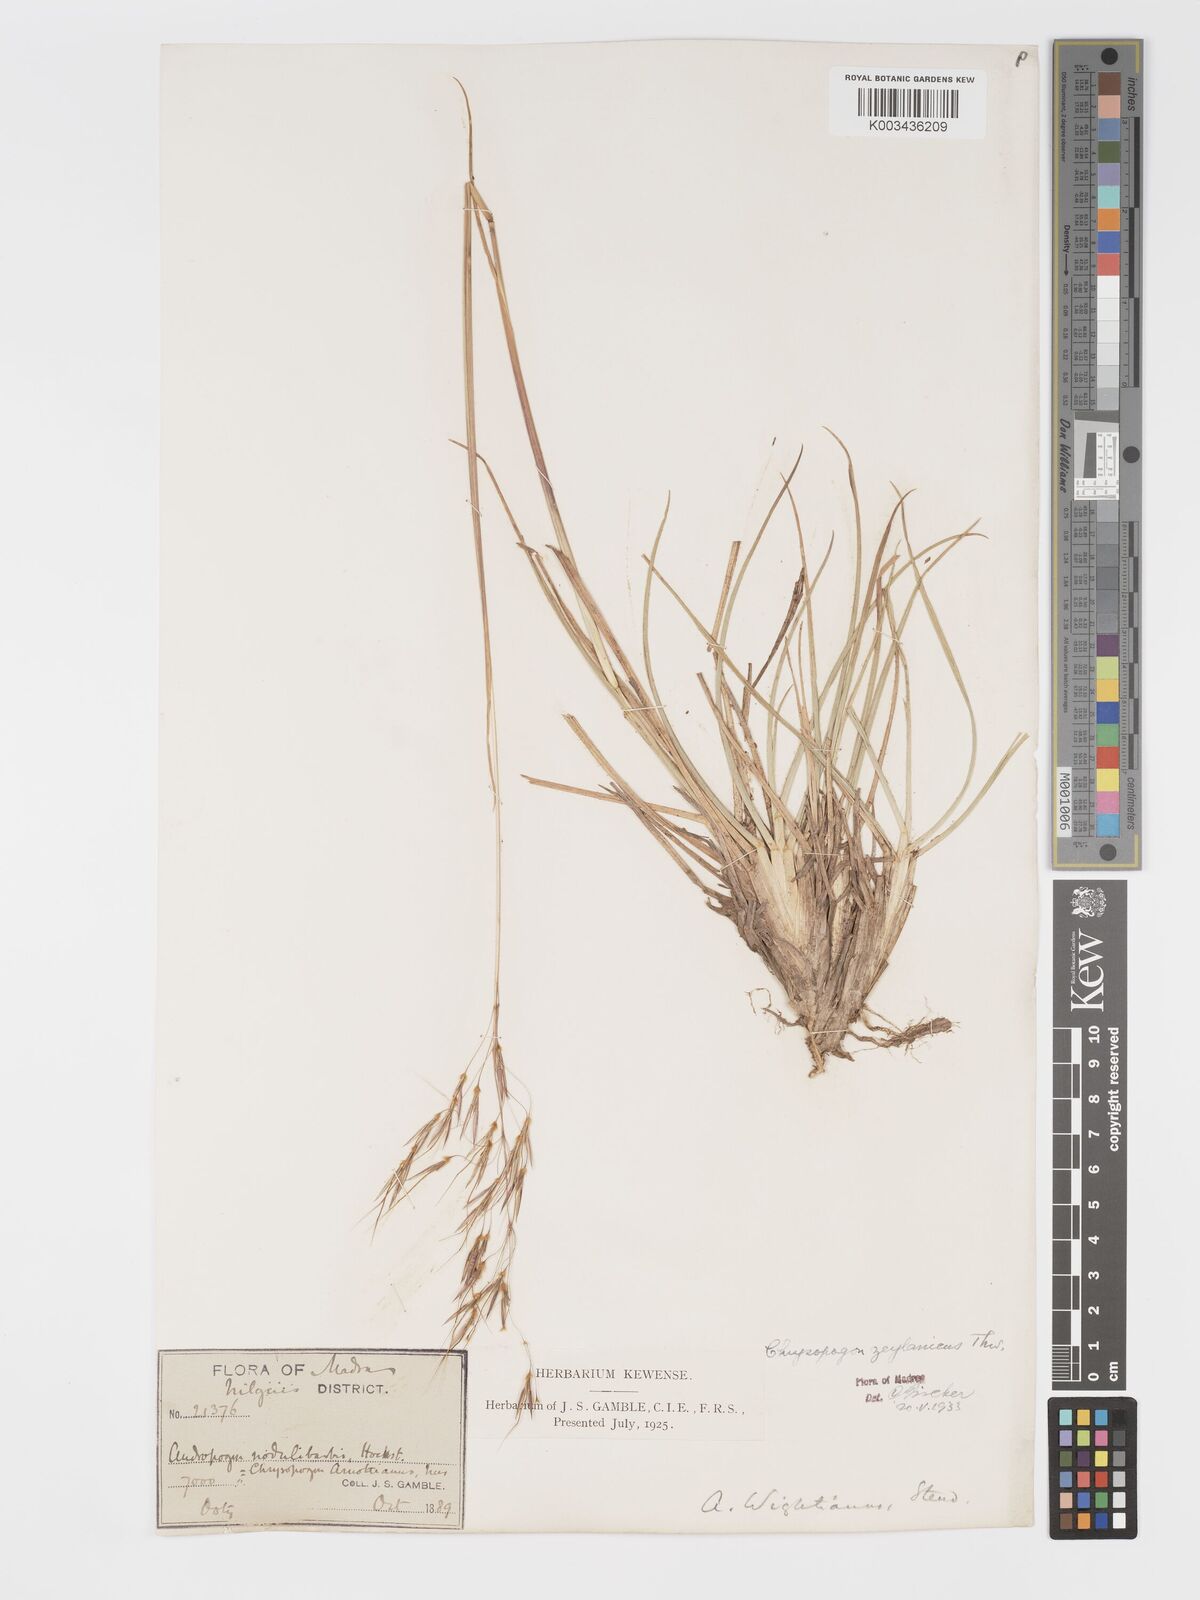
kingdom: Plantae
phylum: Tracheophyta
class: Liliopsida
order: Poales
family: Poaceae
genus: Chrysopogon
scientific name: Chrysopogon nodulibarbis
